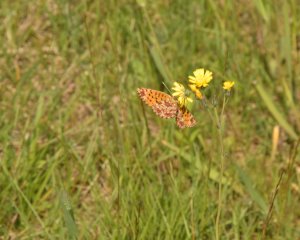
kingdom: Animalia
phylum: Arthropoda
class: Insecta
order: Lepidoptera
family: Nymphalidae
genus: Boloria
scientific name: Boloria selene
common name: Silver-bordered Fritillary
